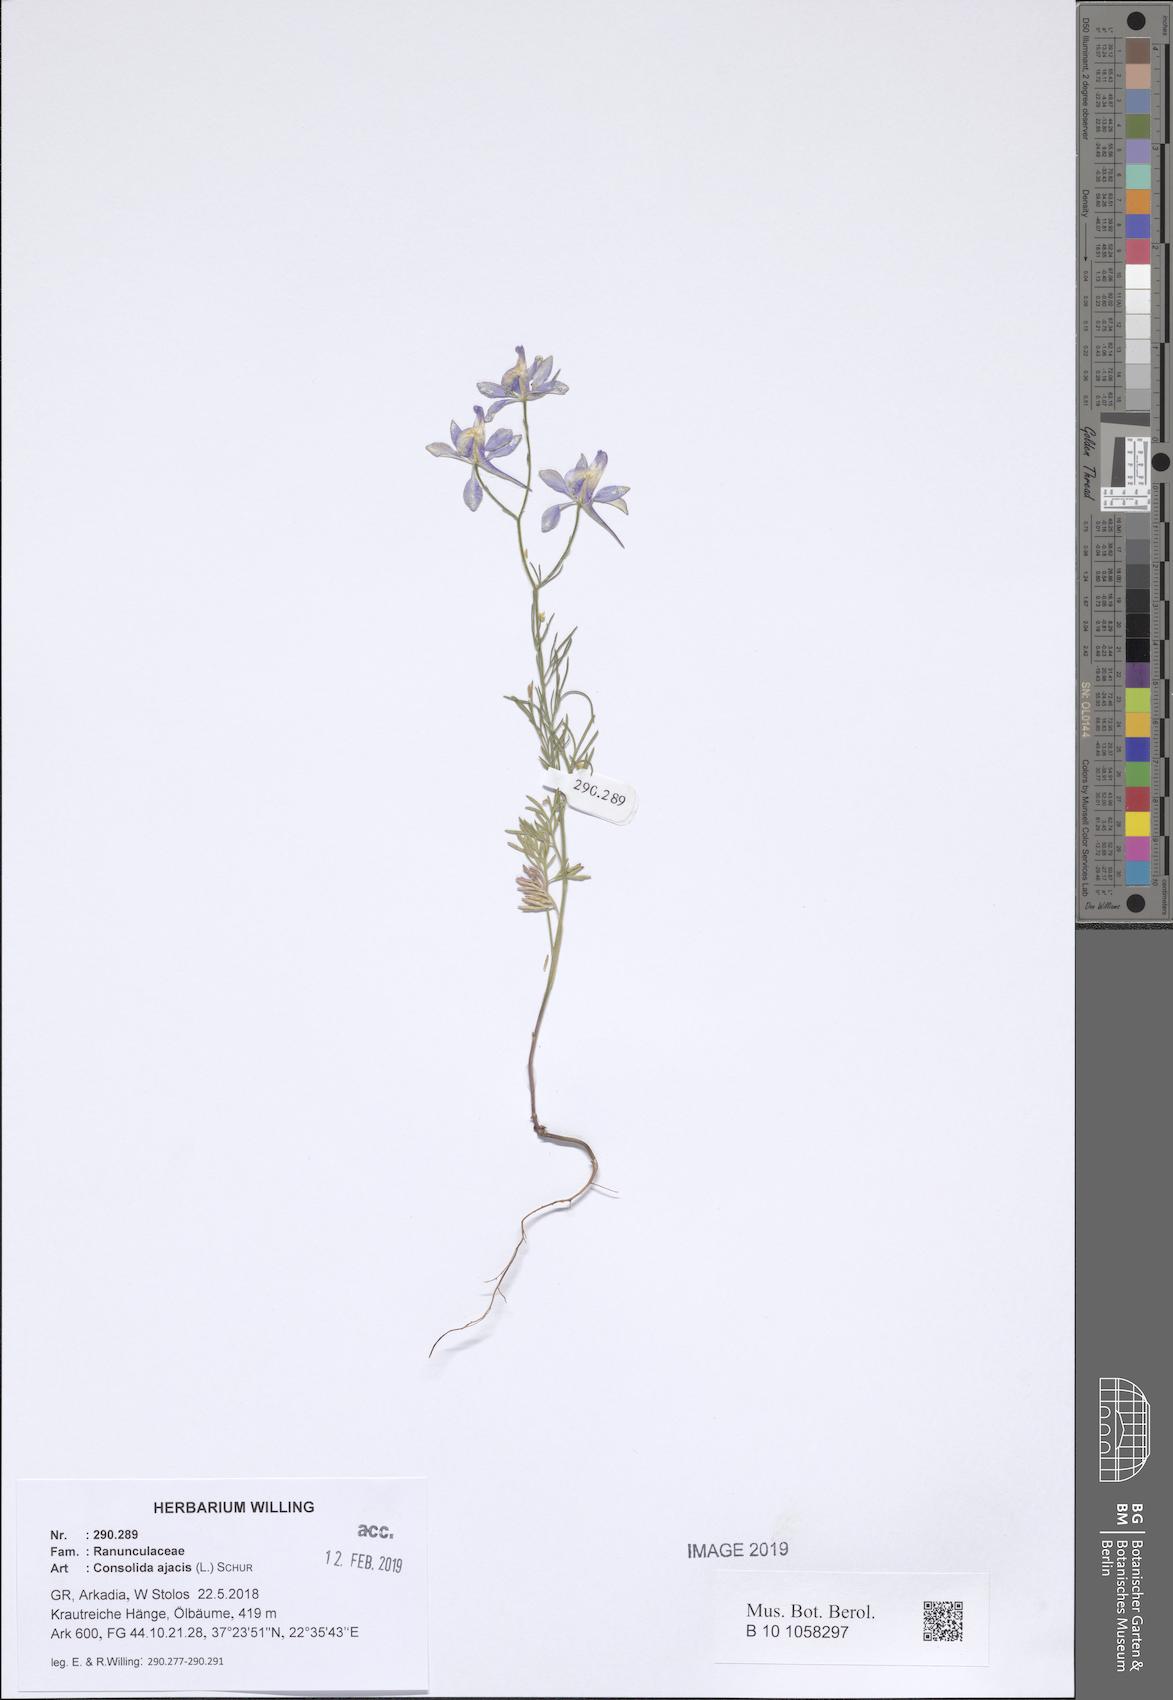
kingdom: Plantae
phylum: Tracheophyta
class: Magnoliopsida
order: Ranunculales
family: Ranunculaceae
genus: Delphinium
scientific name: Delphinium ajacis
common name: Doubtful knight's-spur
